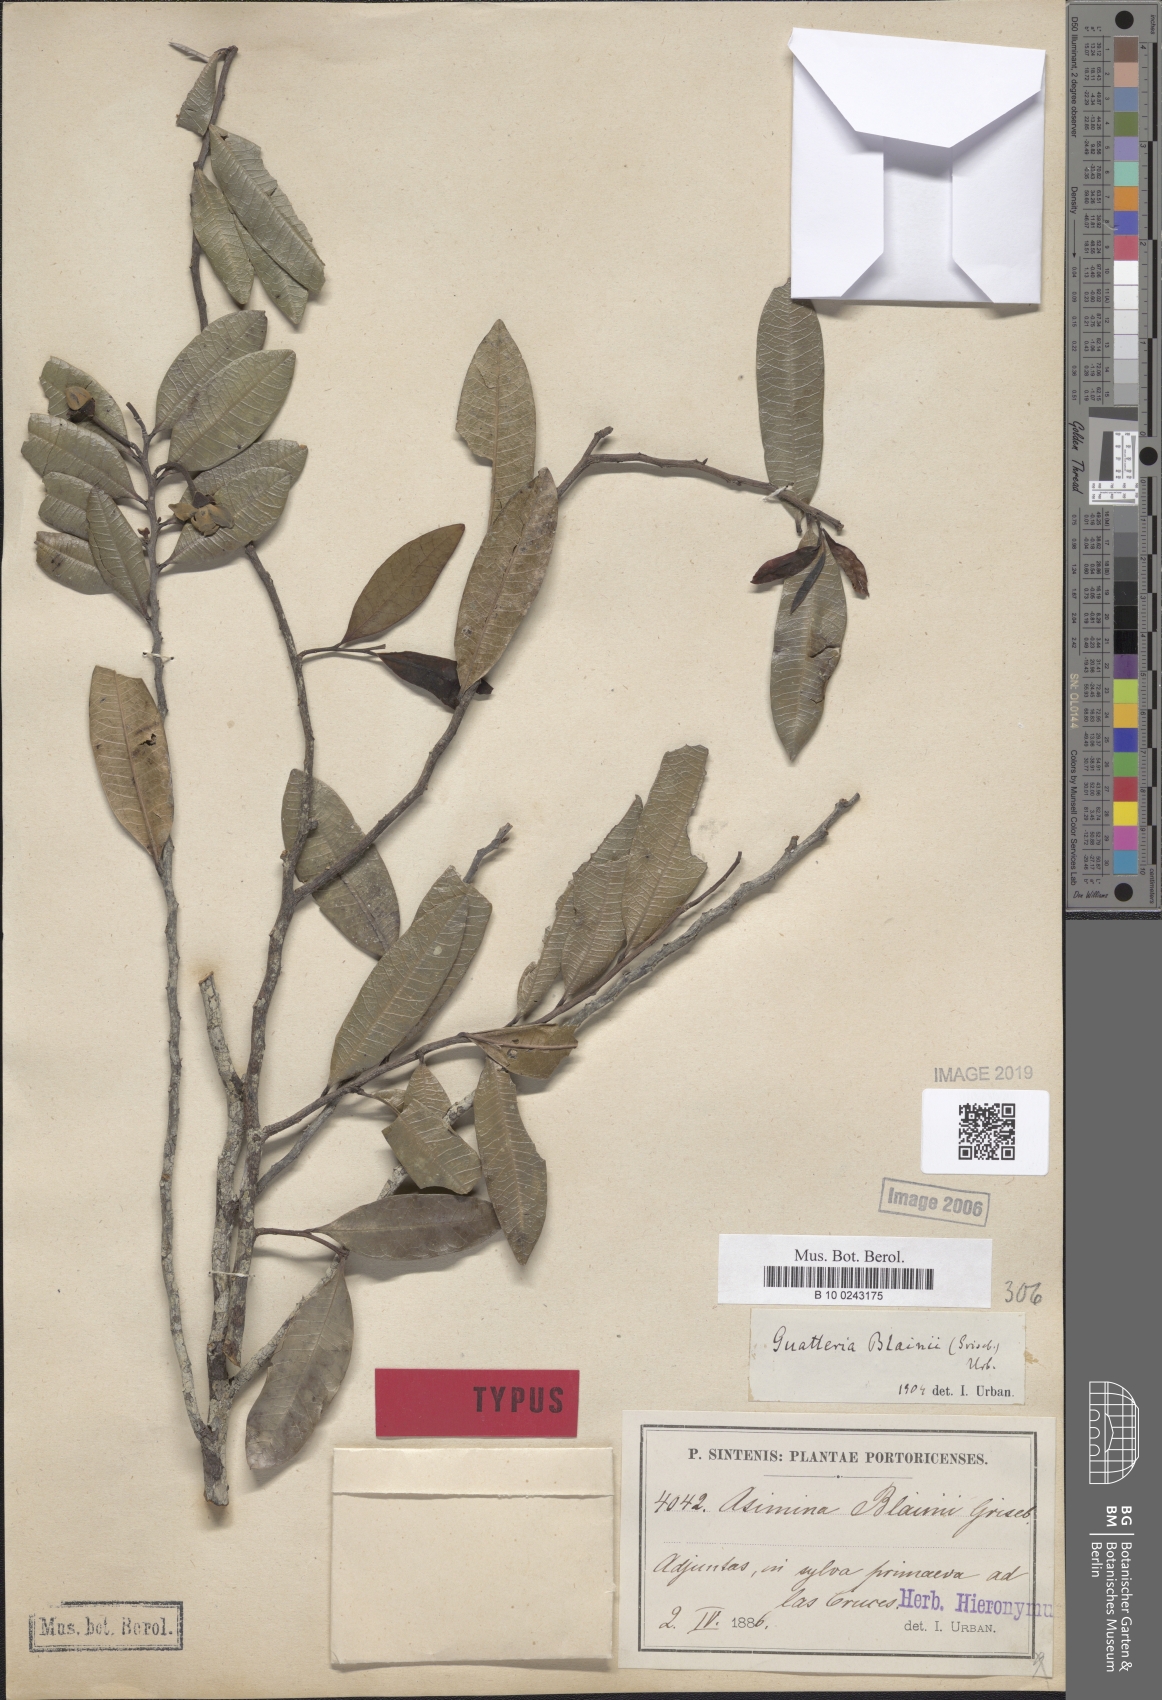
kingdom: Plantae
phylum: Tracheophyta
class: Magnoliopsida
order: Magnoliales
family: Annonaceae
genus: Guatteria
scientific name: Guatteria blainii
